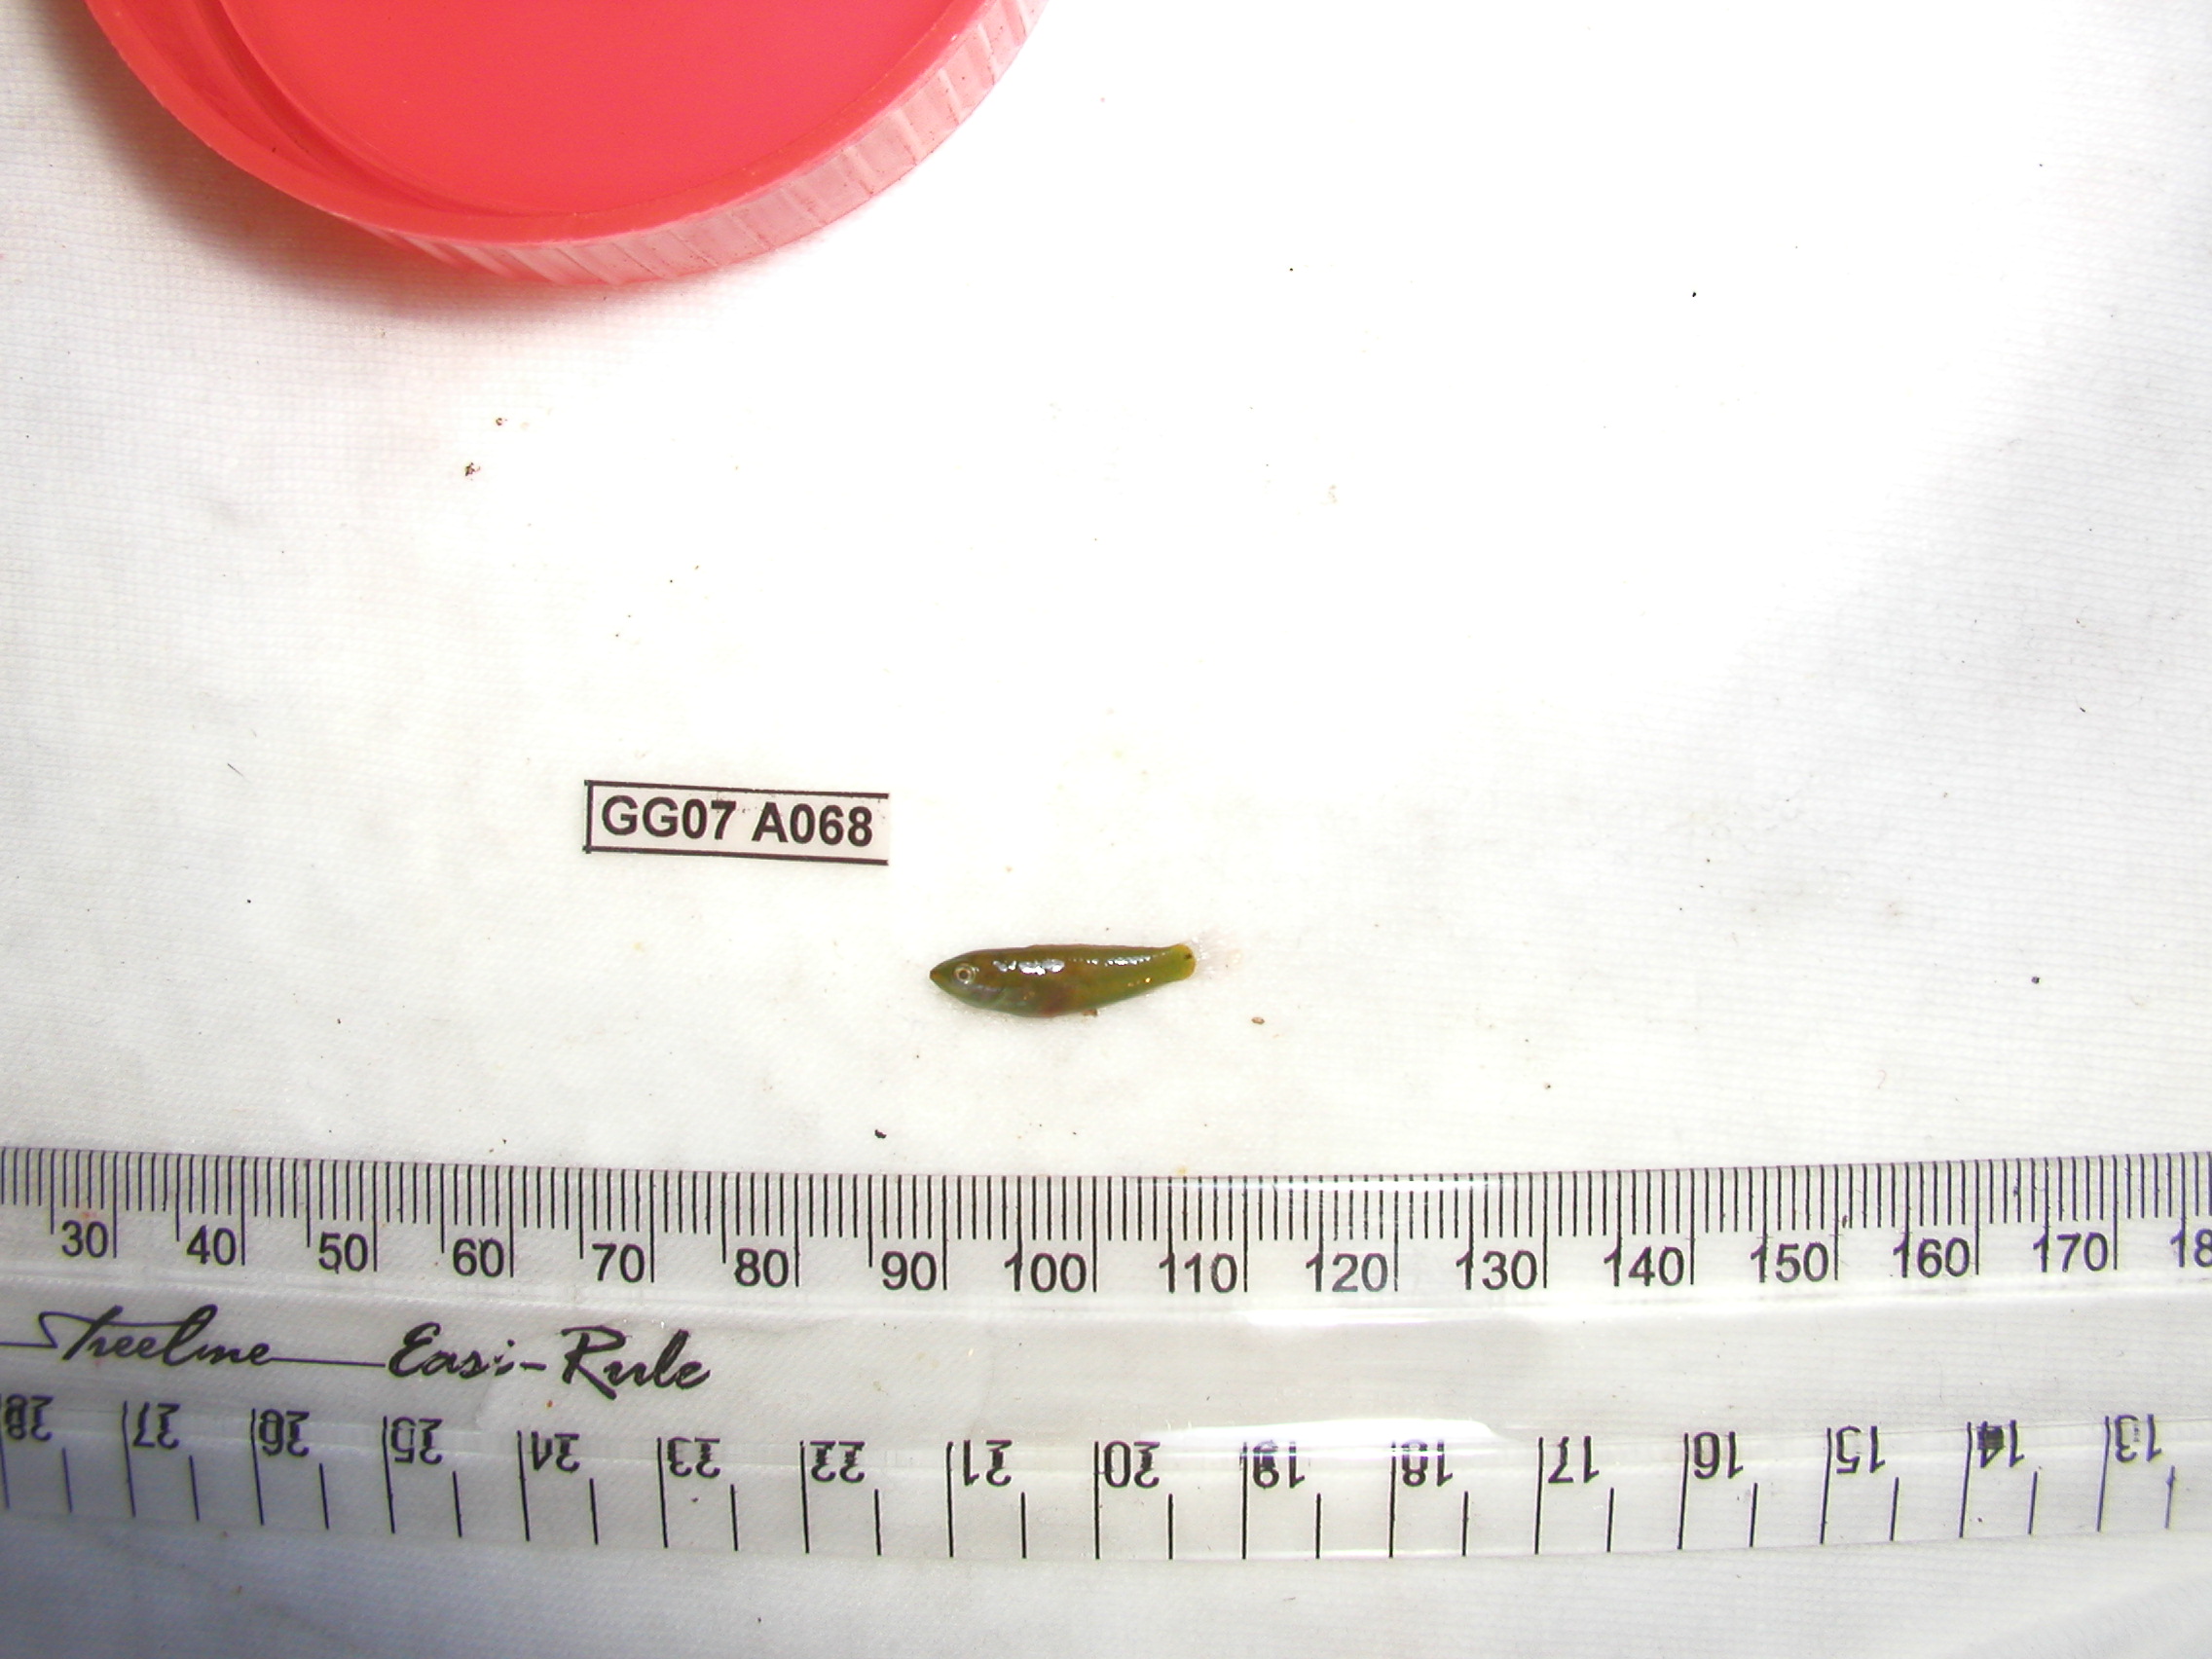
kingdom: Animalia
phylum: Chordata
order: Perciformes
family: Labridae
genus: Stethojulis
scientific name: Stethojulis strigiventer
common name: Three-ribbon wrasse
